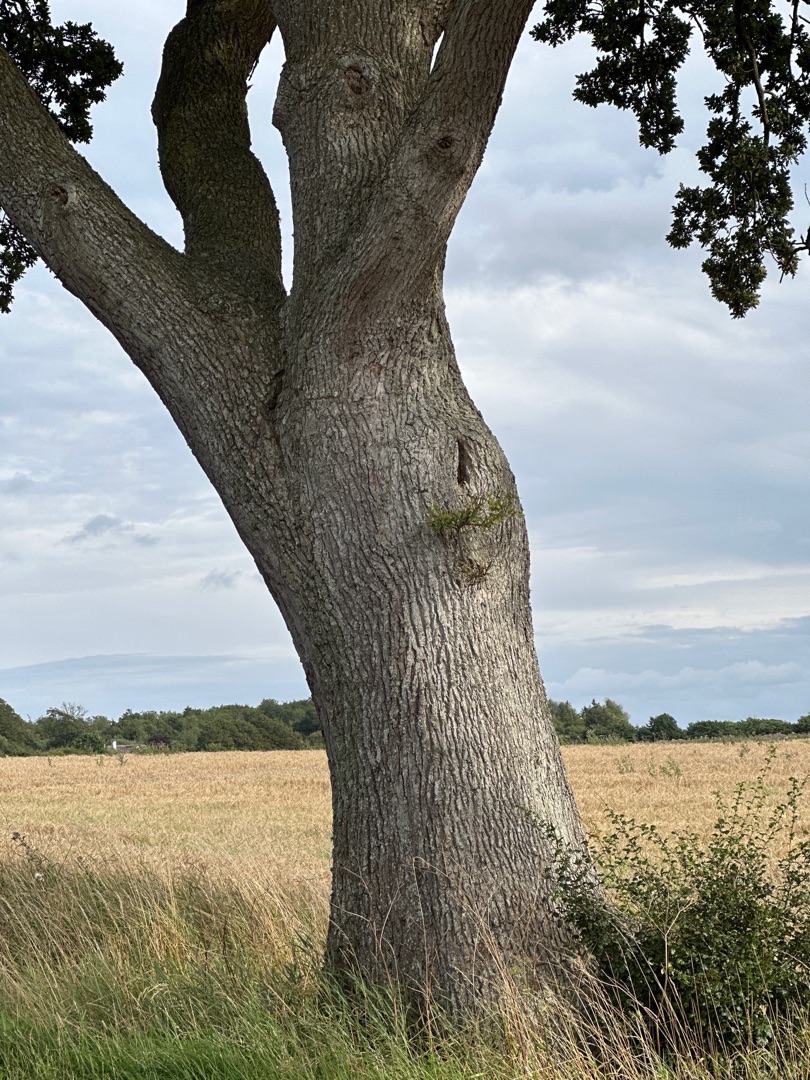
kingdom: Plantae
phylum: Tracheophyta
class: Magnoliopsida
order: Fagales
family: Fagaceae
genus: Quercus
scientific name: Quercus
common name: Egeslægten
